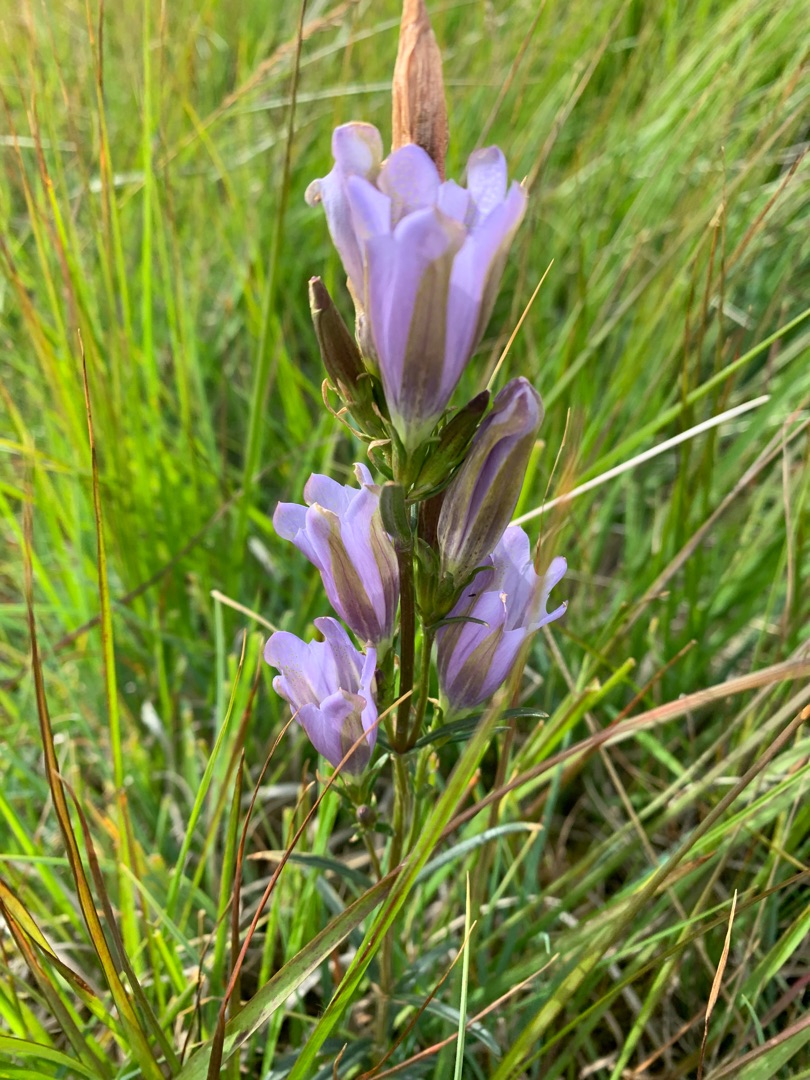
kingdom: Plantae
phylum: Tracheophyta
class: Magnoliopsida
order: Gentianales
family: Gentianaceae
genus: Gentiana
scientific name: Gentiana pneumonanthe
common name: Klokke-ensian
